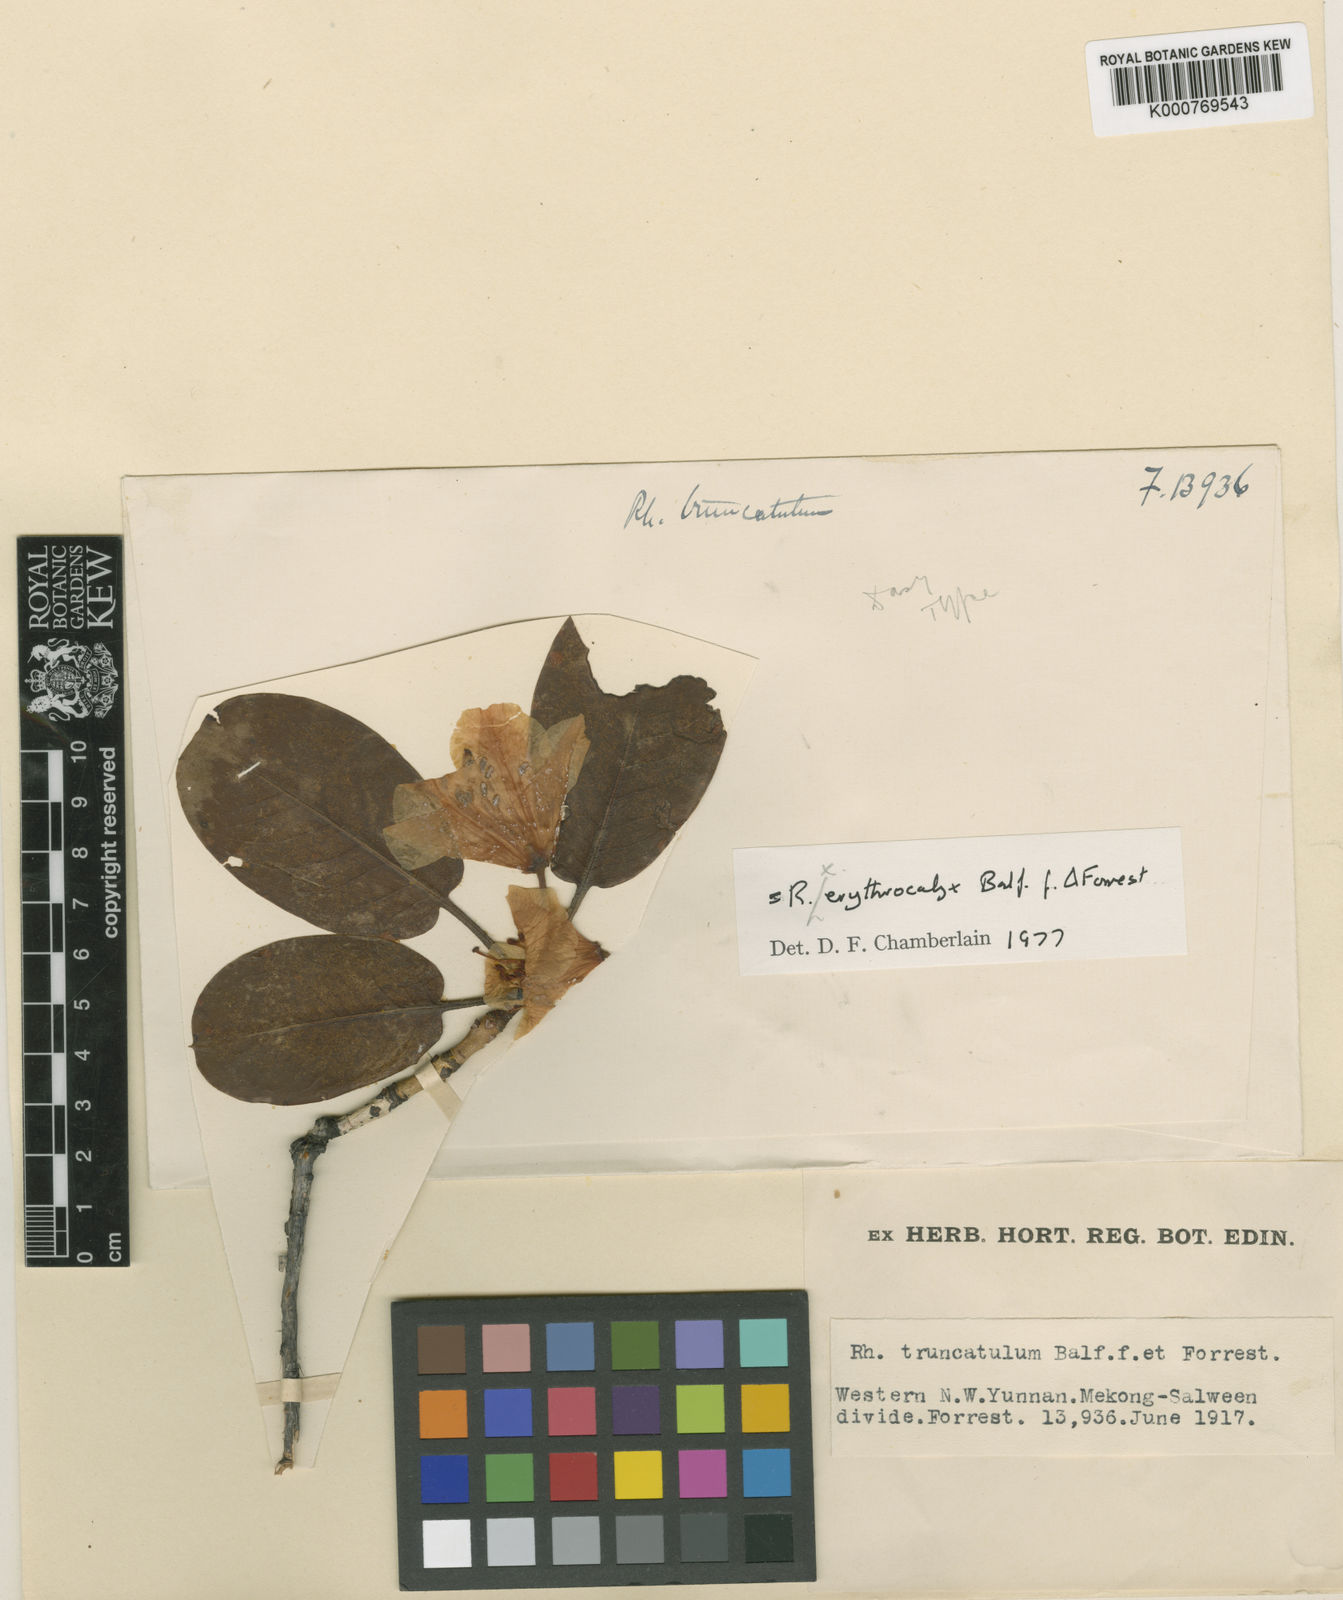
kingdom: Plantae
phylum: Tracheophyta
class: Magnoliopsida
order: Ericales
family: Ericaceae
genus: Rhododendron
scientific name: Rhododendron erythrocalyx
